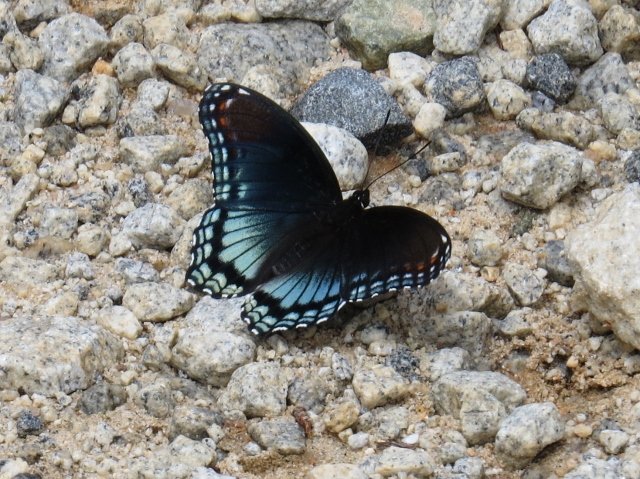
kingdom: Animalia
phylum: Arthropoda
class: Insecta
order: Lepidoptera
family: Nymphalidae
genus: Limenitis
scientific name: Limenitis astyanax
